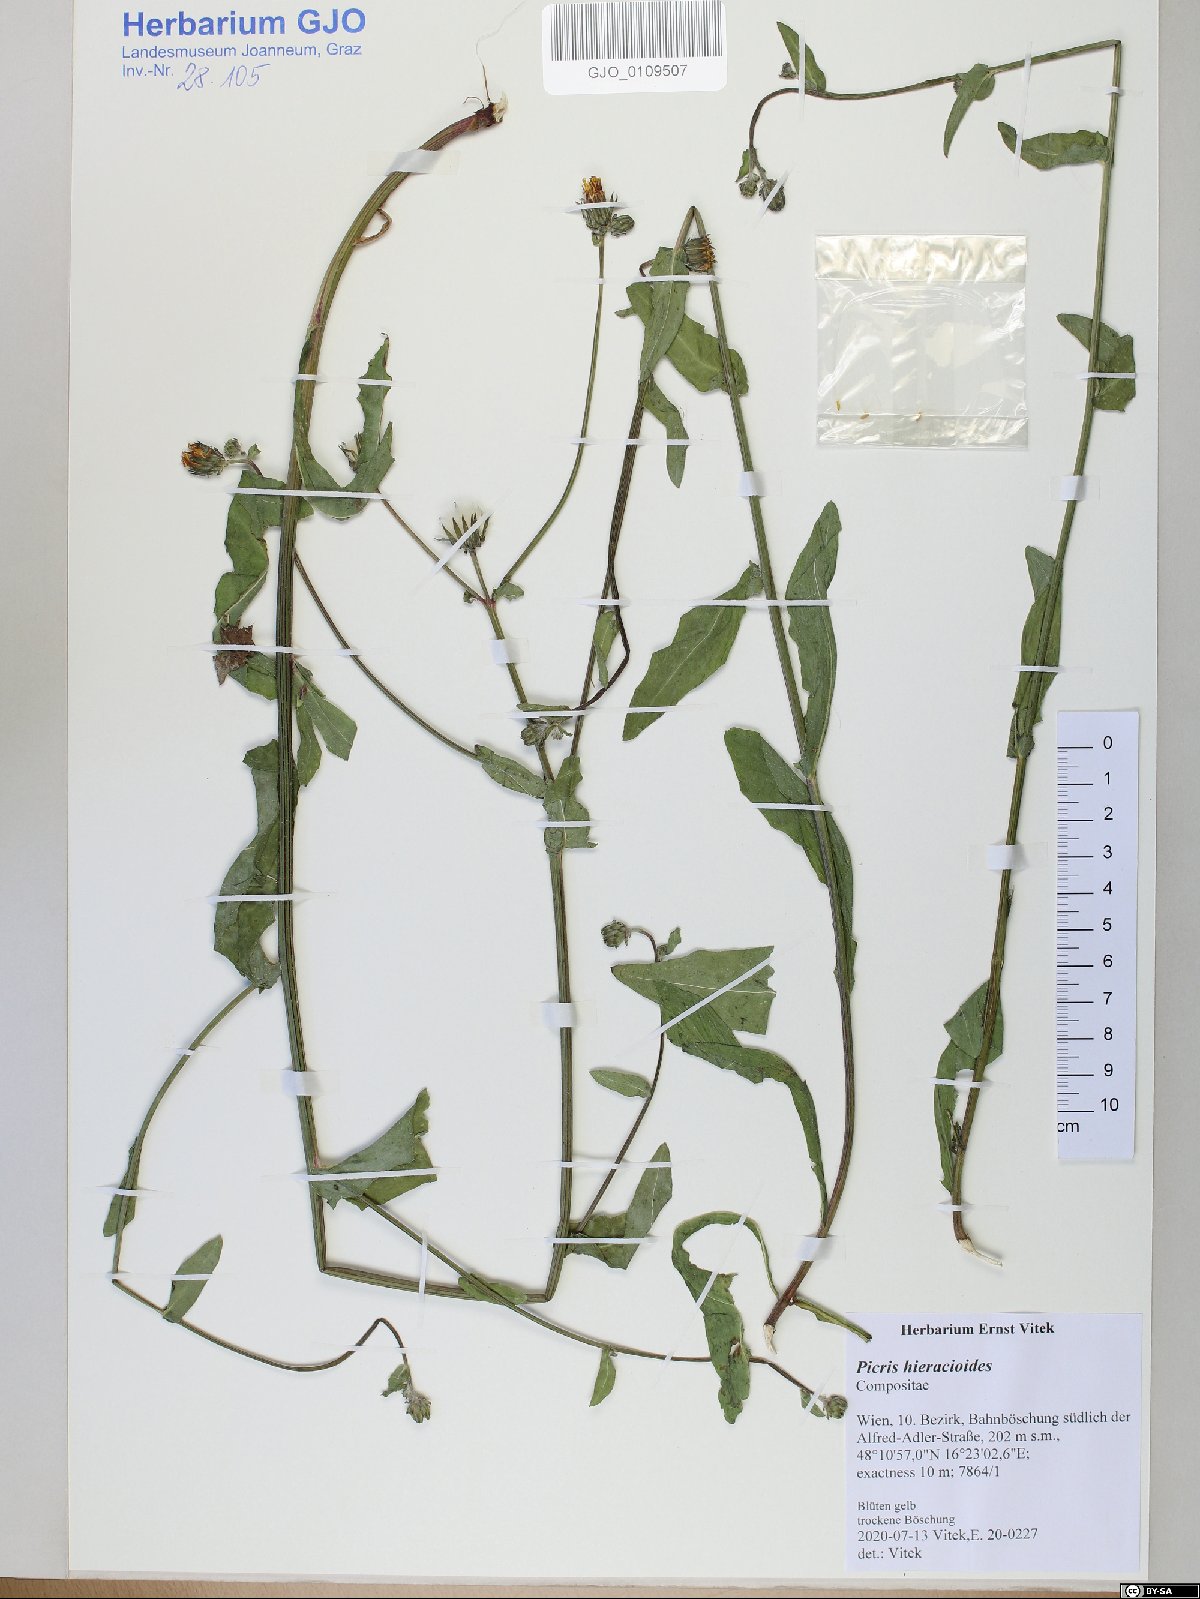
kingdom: Plantae
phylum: Tracheophyta
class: Magnoliopsida
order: Asterales
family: Asteraceae
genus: Picris
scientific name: Picris hieracioides
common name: Hawkweed oxtongue
